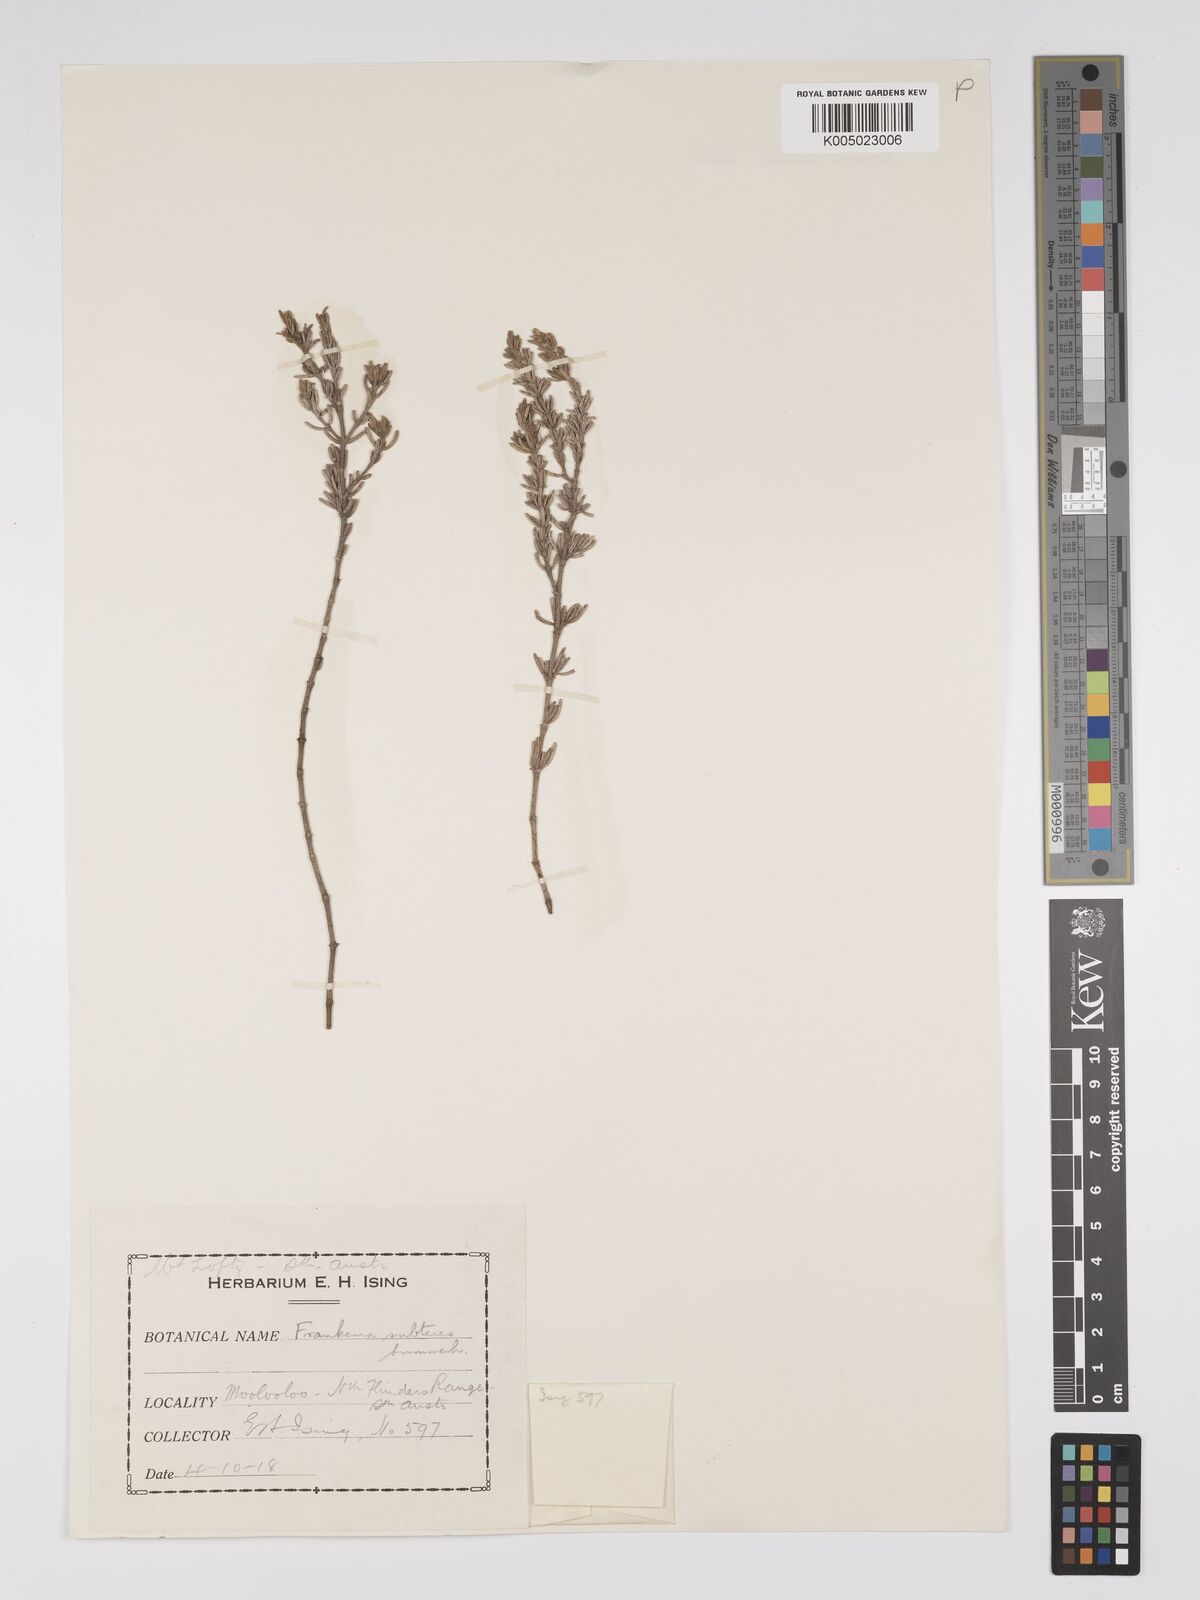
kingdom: Plantae
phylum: Tracheophyta
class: Magnoliopsida
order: Caryophyllales
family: Frankeniaceae
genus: Frankenia
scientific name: Frankenia subteres
